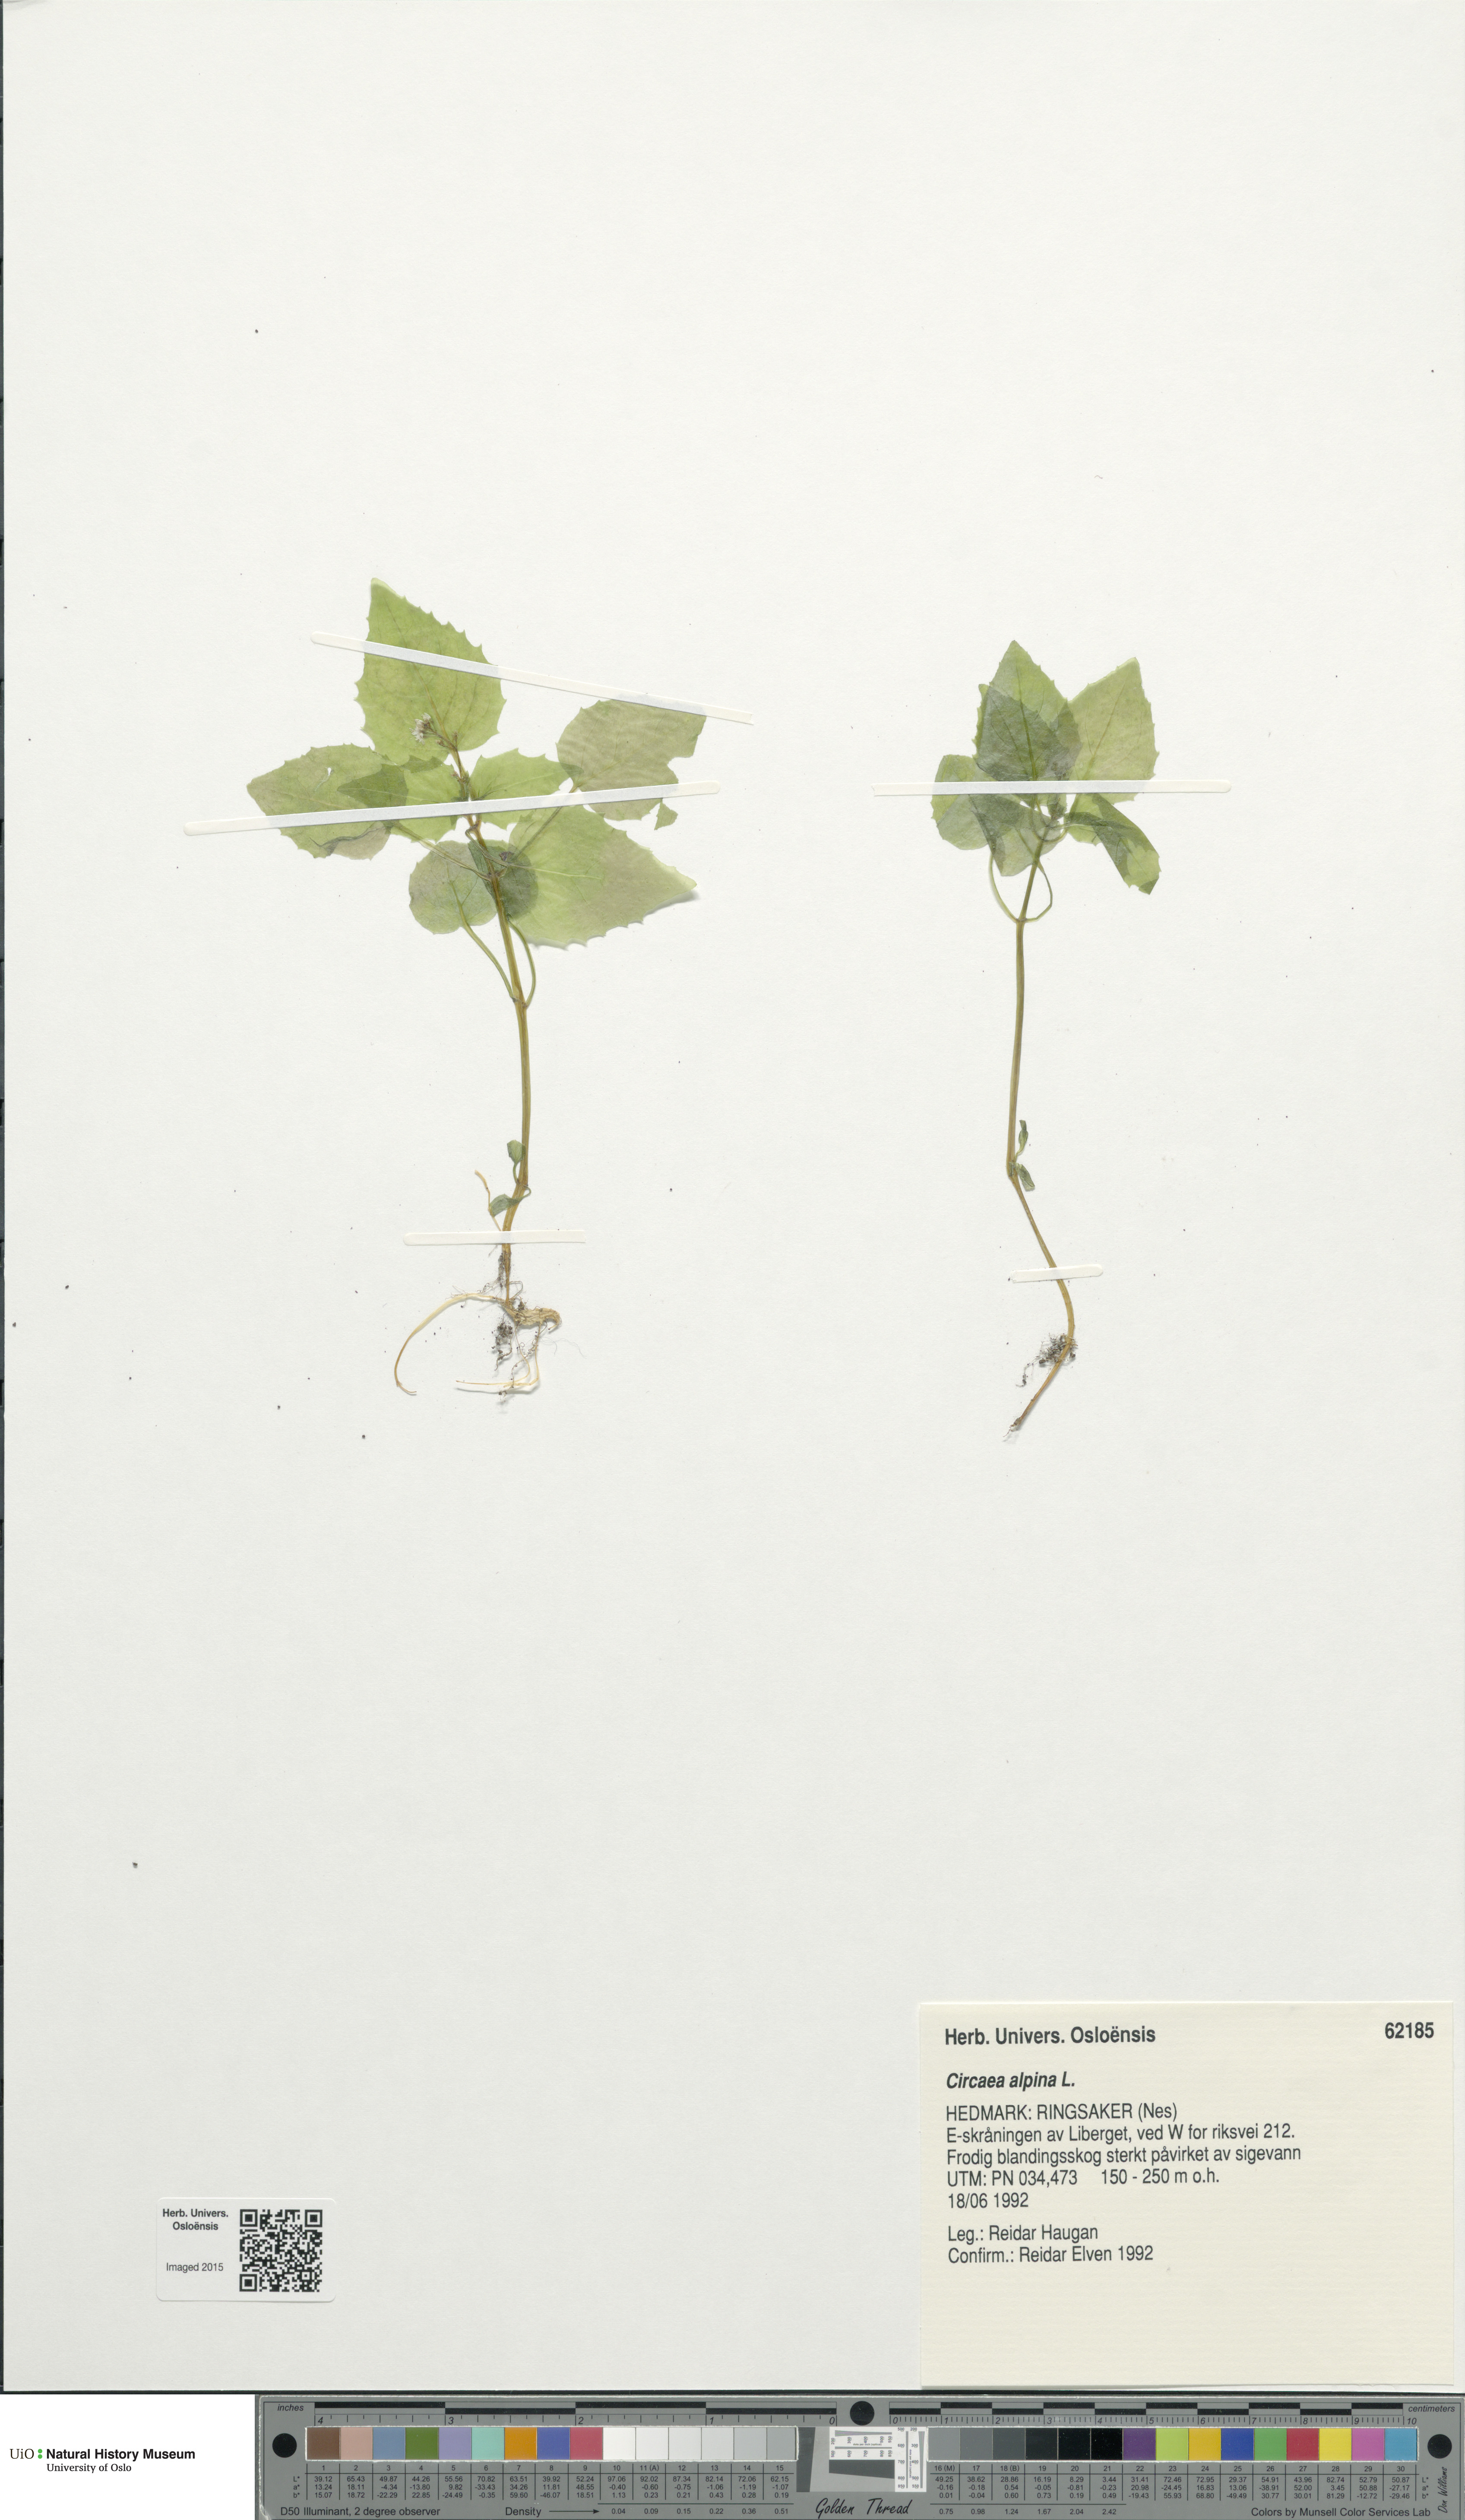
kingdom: Plantae
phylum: Tracheophyta
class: Magnoliopsida
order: Myrtales
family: Onagraceae
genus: Circaea
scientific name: Circaea alpina
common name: Alpine enchanter's-nightshade
